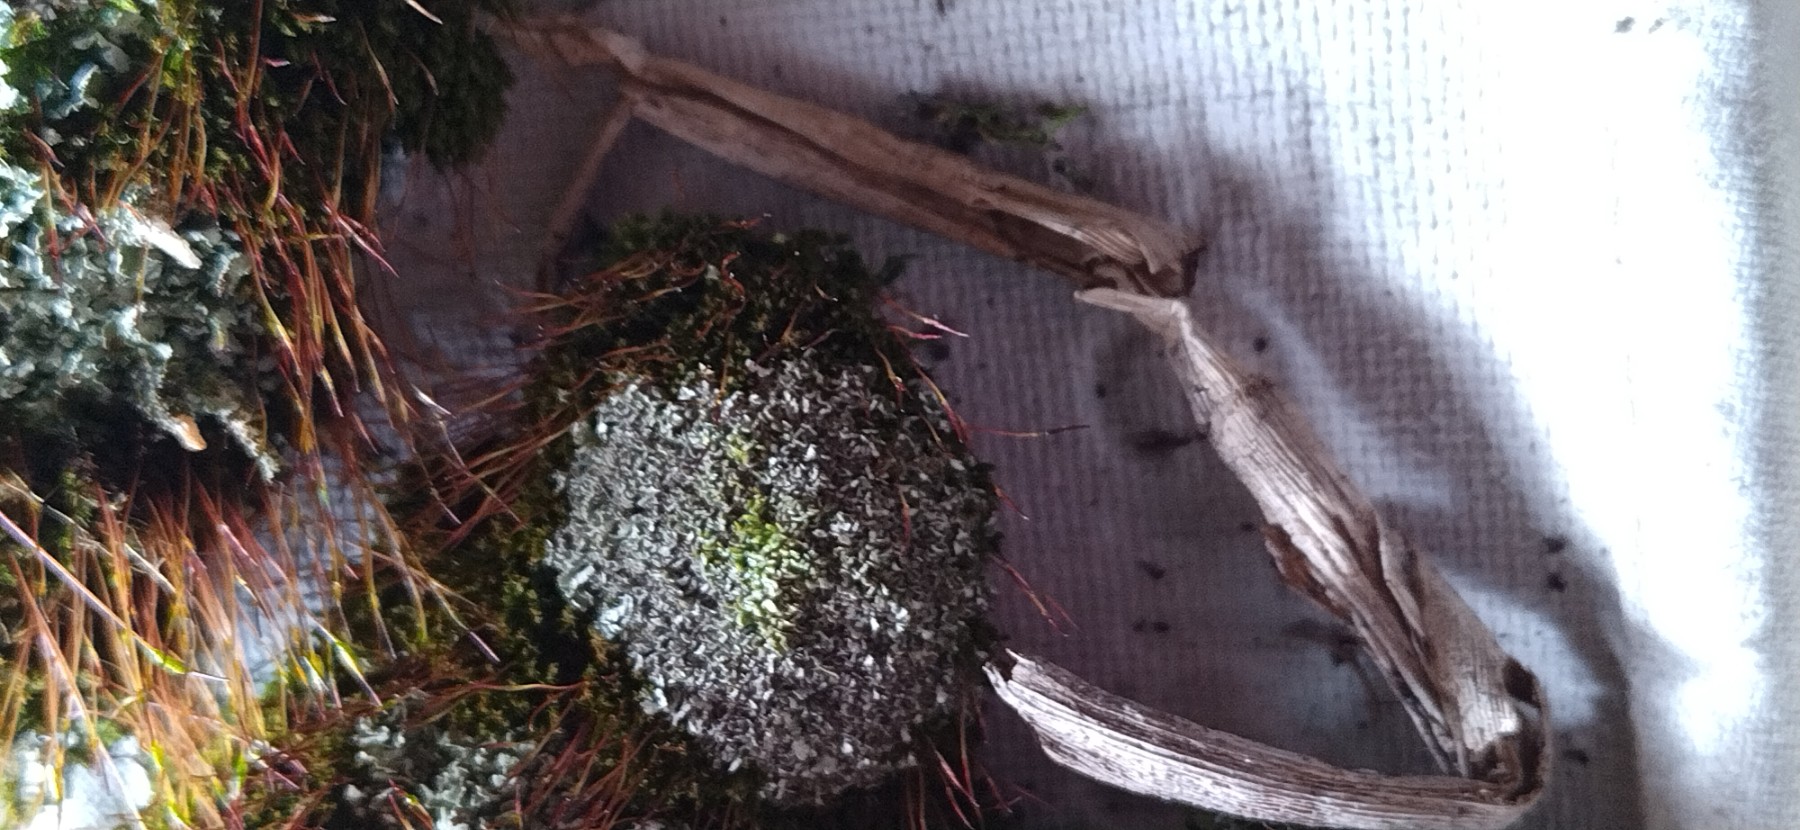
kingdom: Fungi
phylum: Ascomycota
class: Lecanoromycetes
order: Lecanorales
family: Cladoniaceae
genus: Cladonia
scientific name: Cladonia
